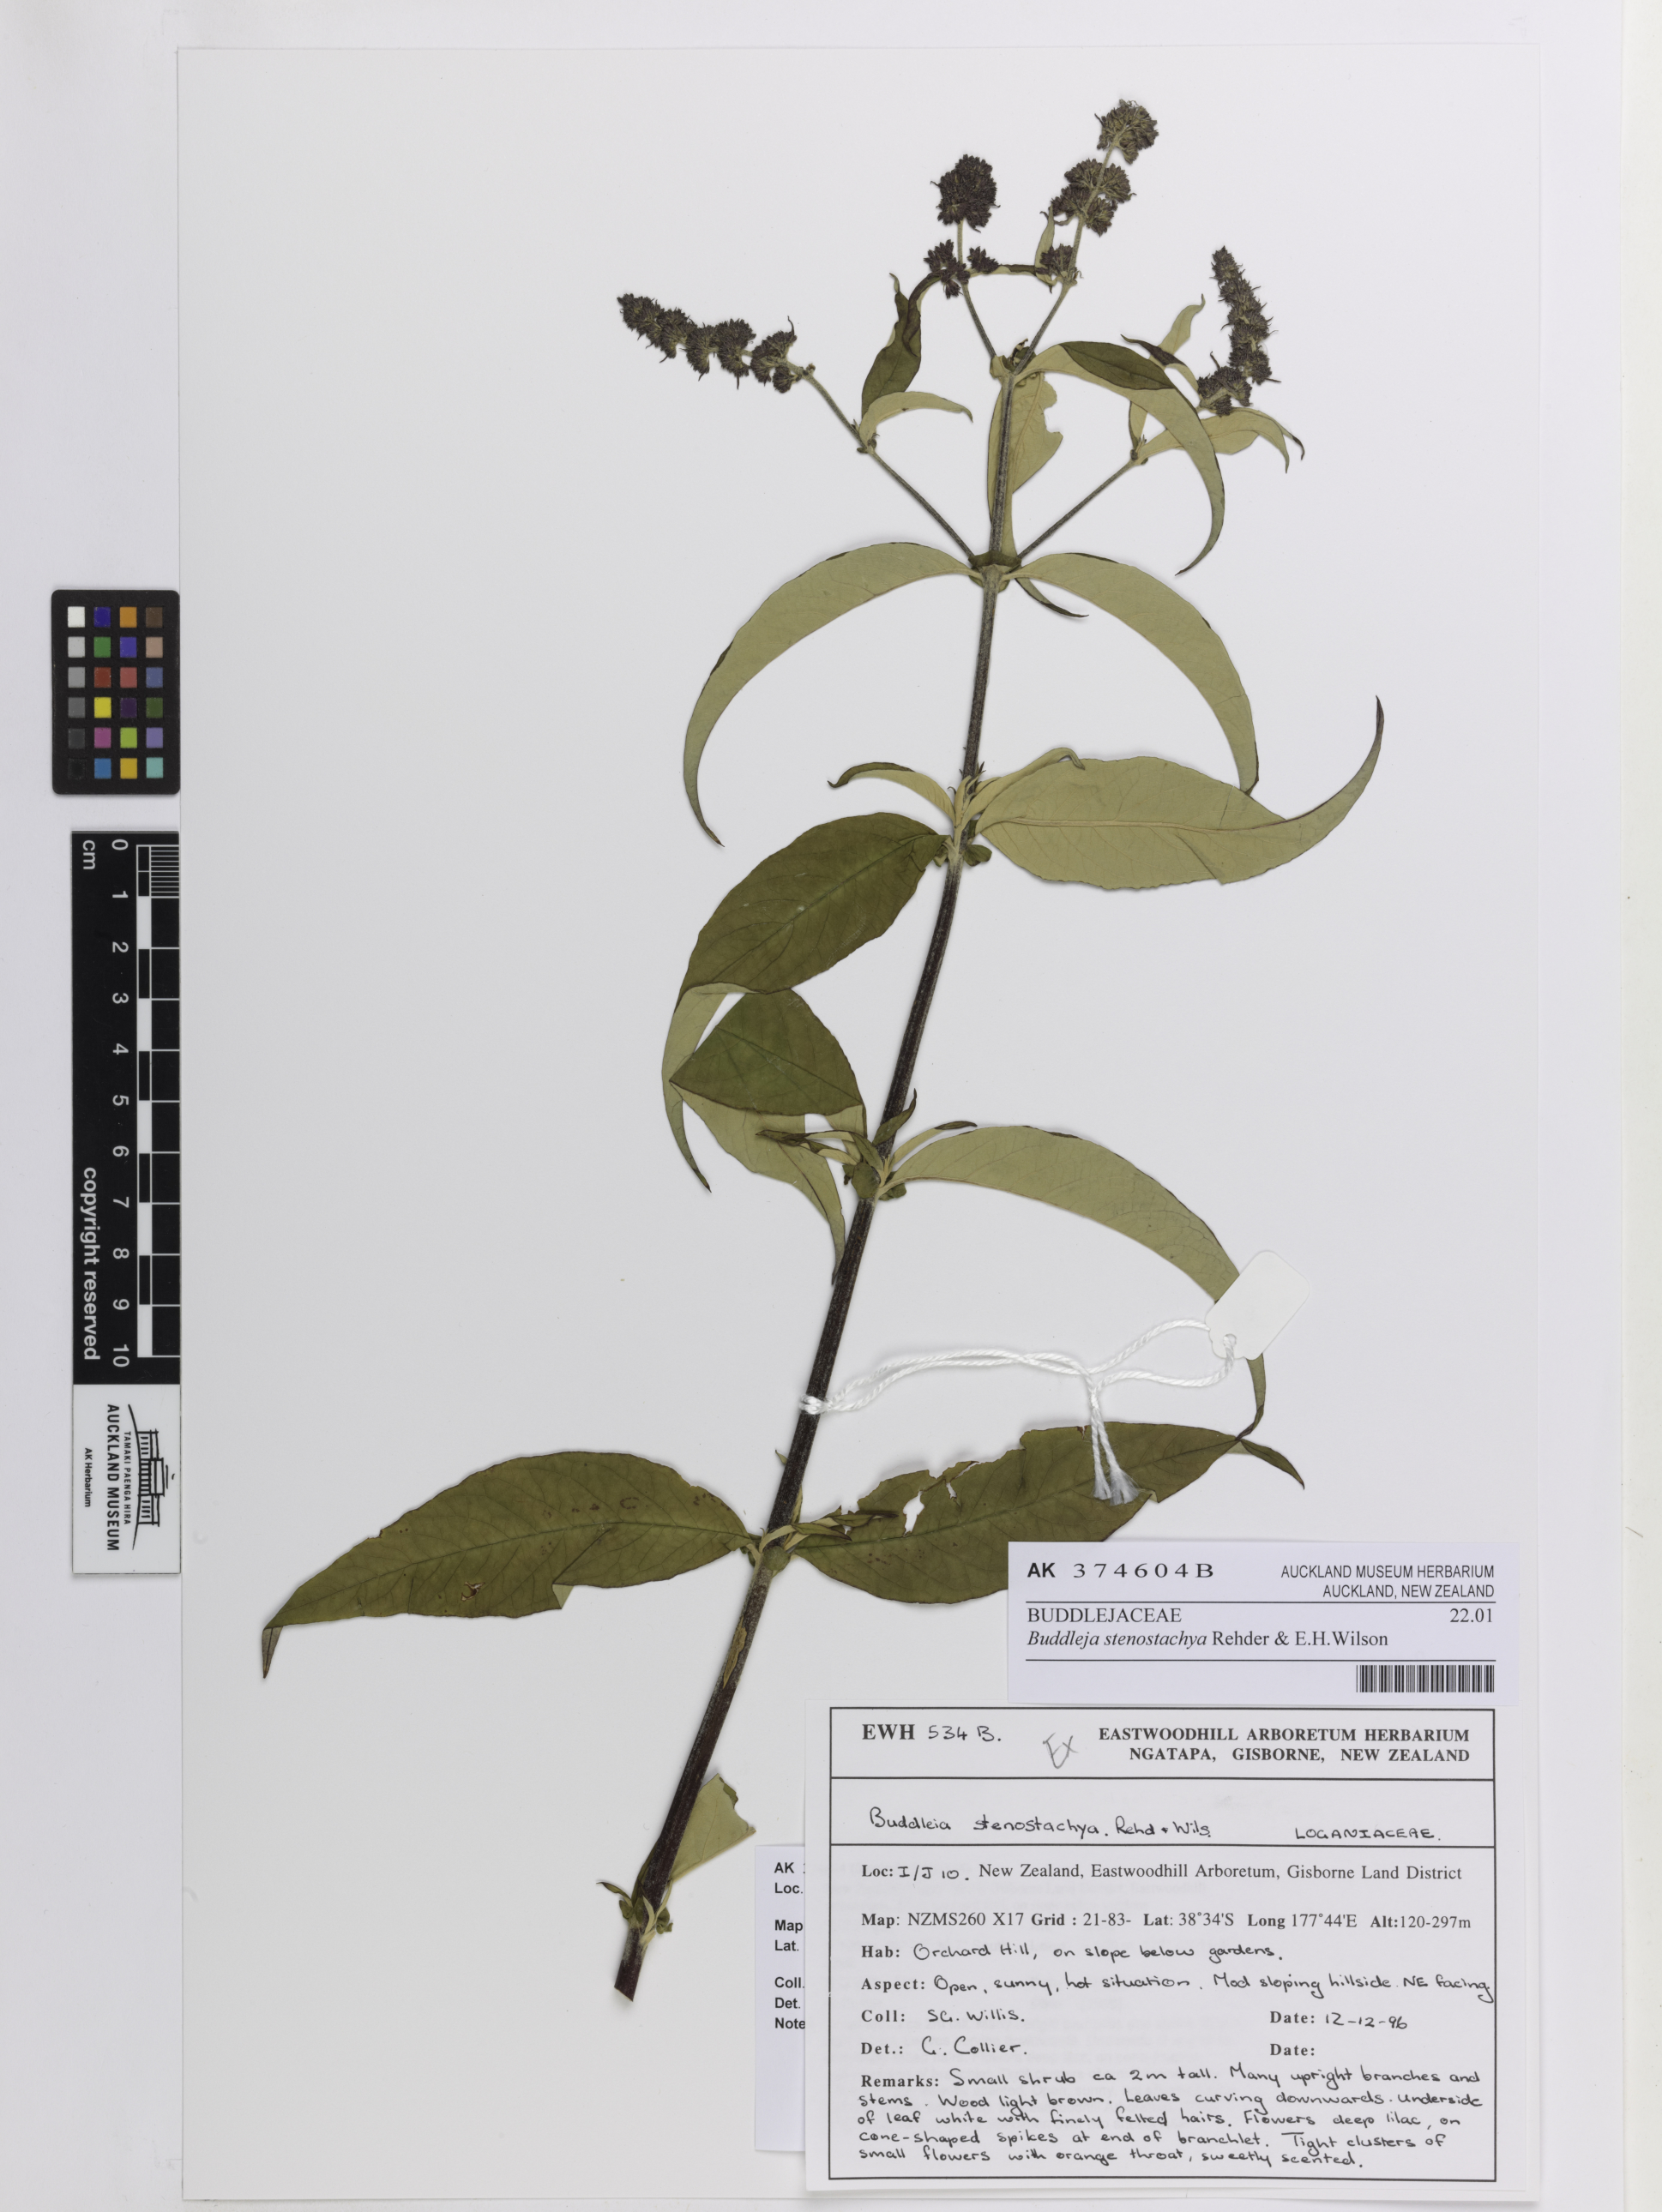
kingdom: Plantae
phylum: Tracheophyta
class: Magnoliopsida
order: Lamiales
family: Scrophulariaceae
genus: Buddleja
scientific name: Buddleja nivea
